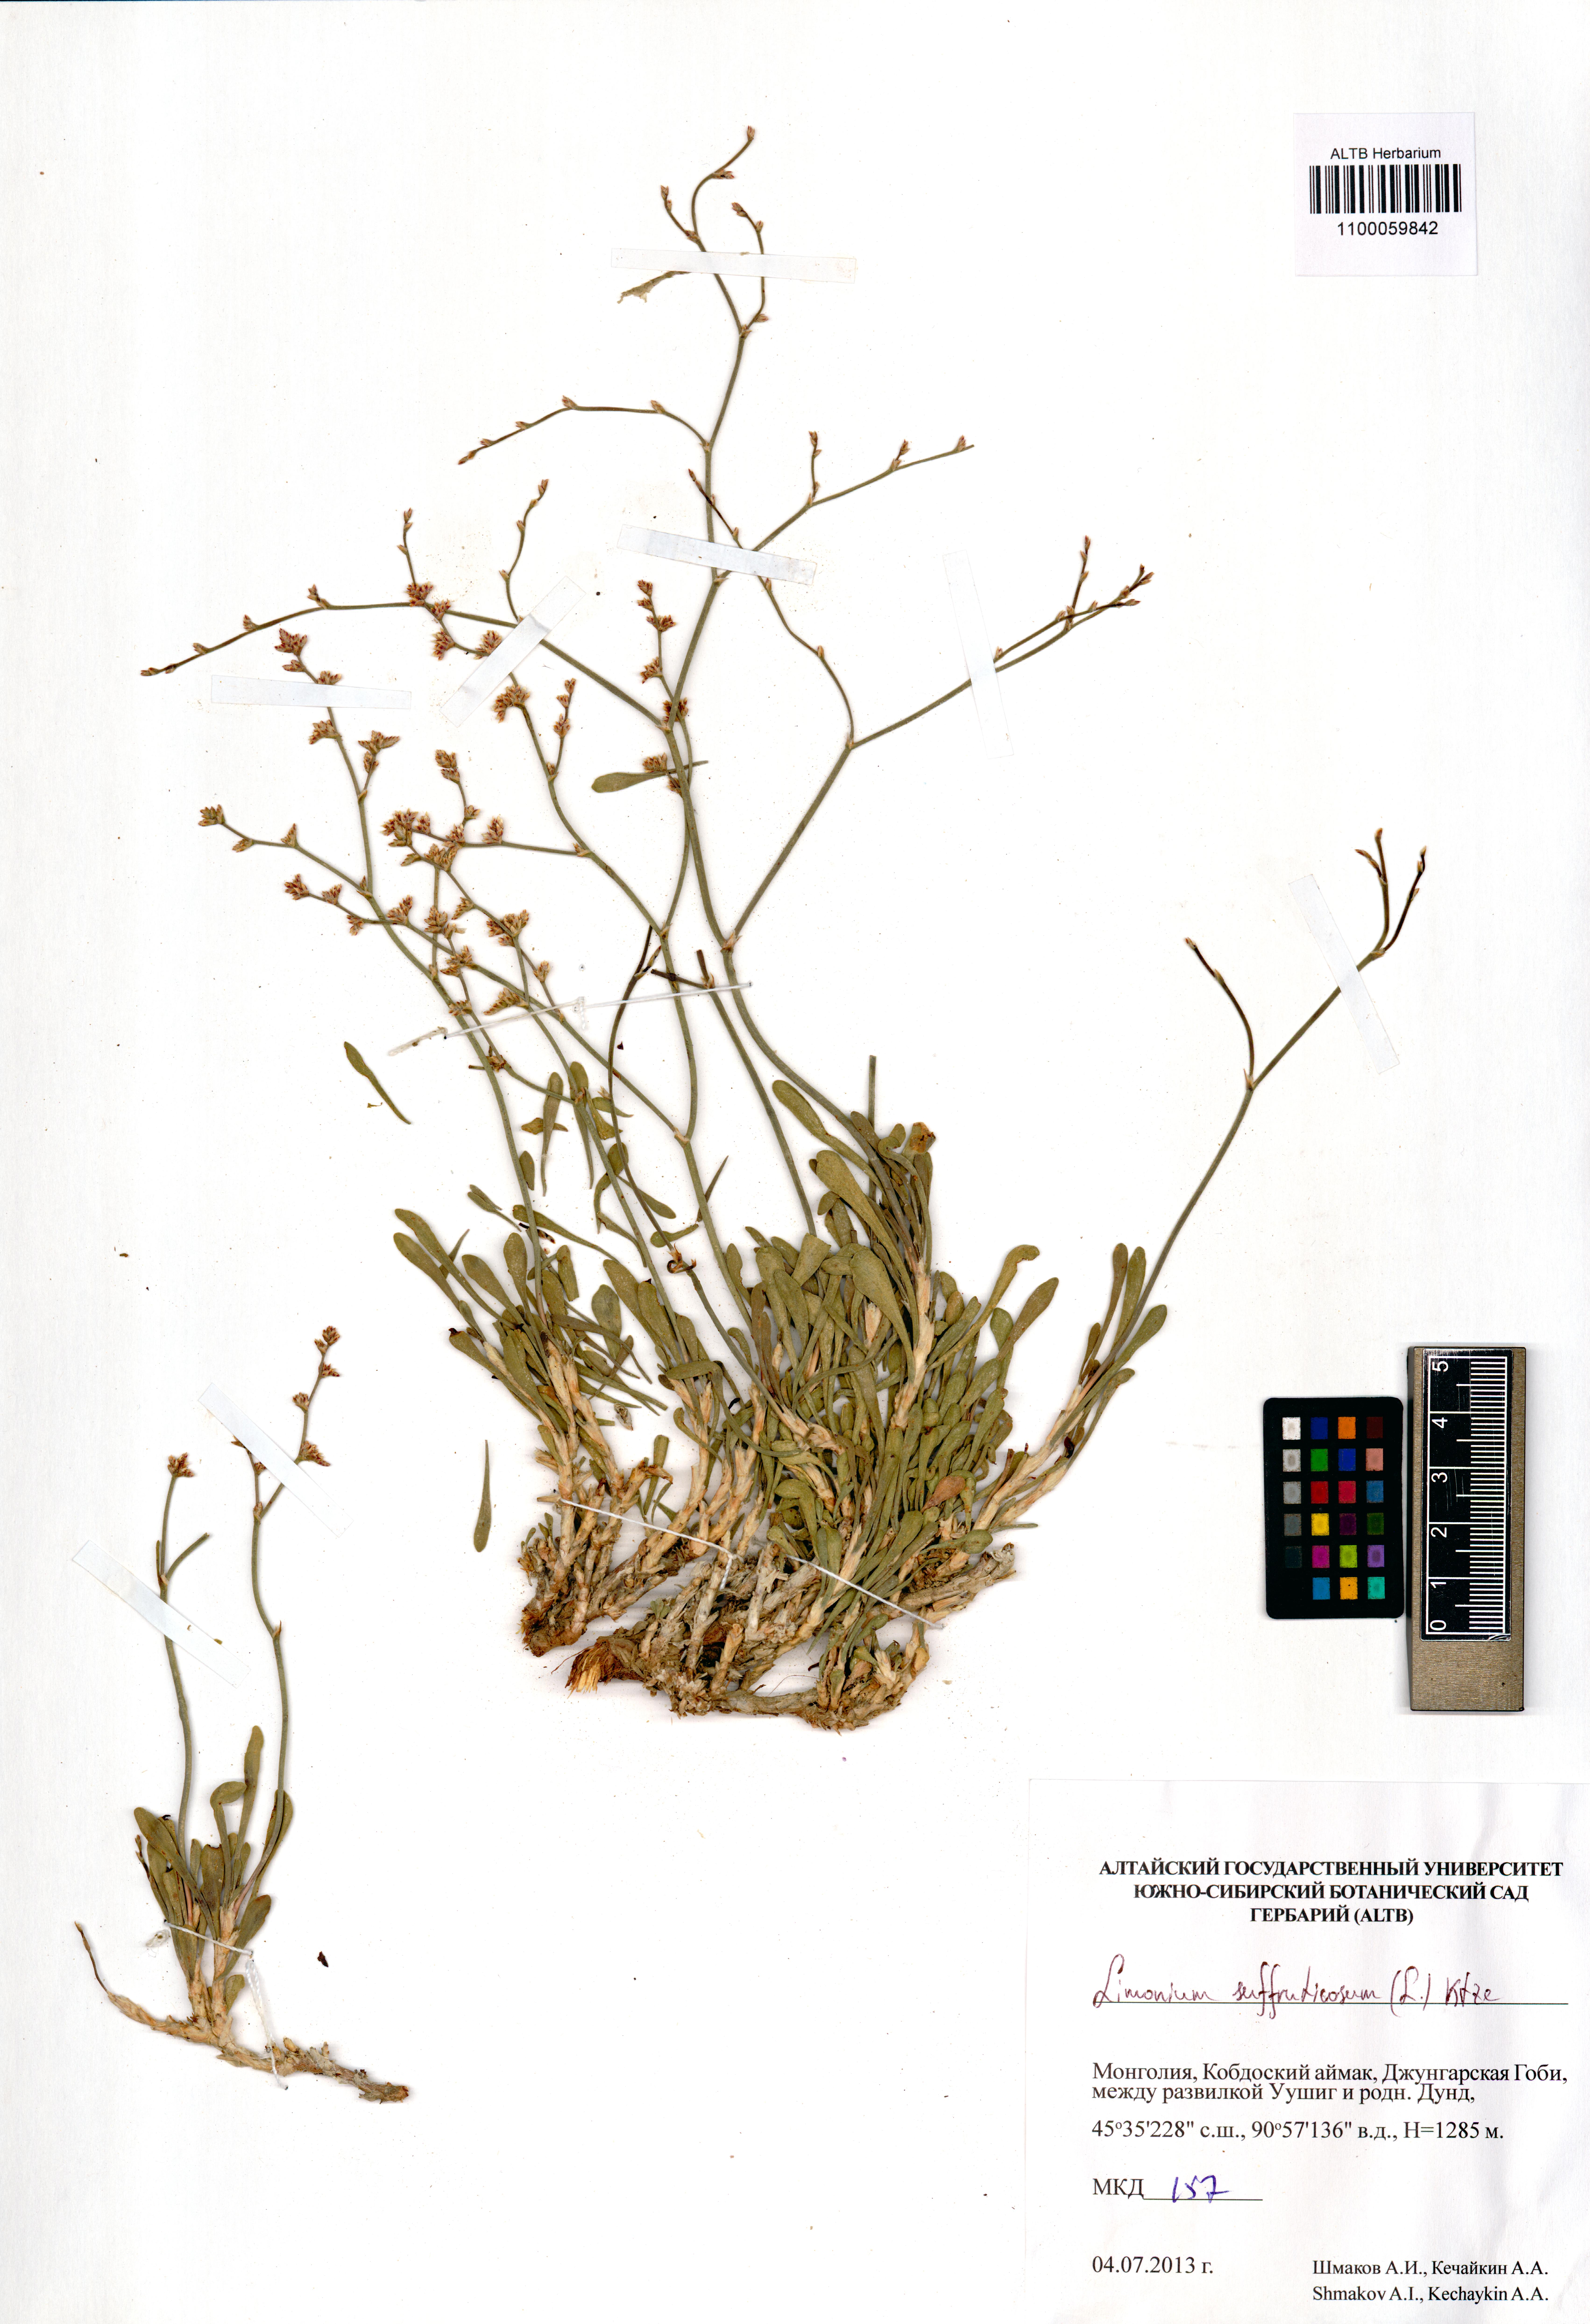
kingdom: Plantae
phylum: Tracheophyta
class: Magnoliopsida
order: Caryophyllales
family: Plumbaginaceae
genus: Limonium
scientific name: Limonium suffruticosum
